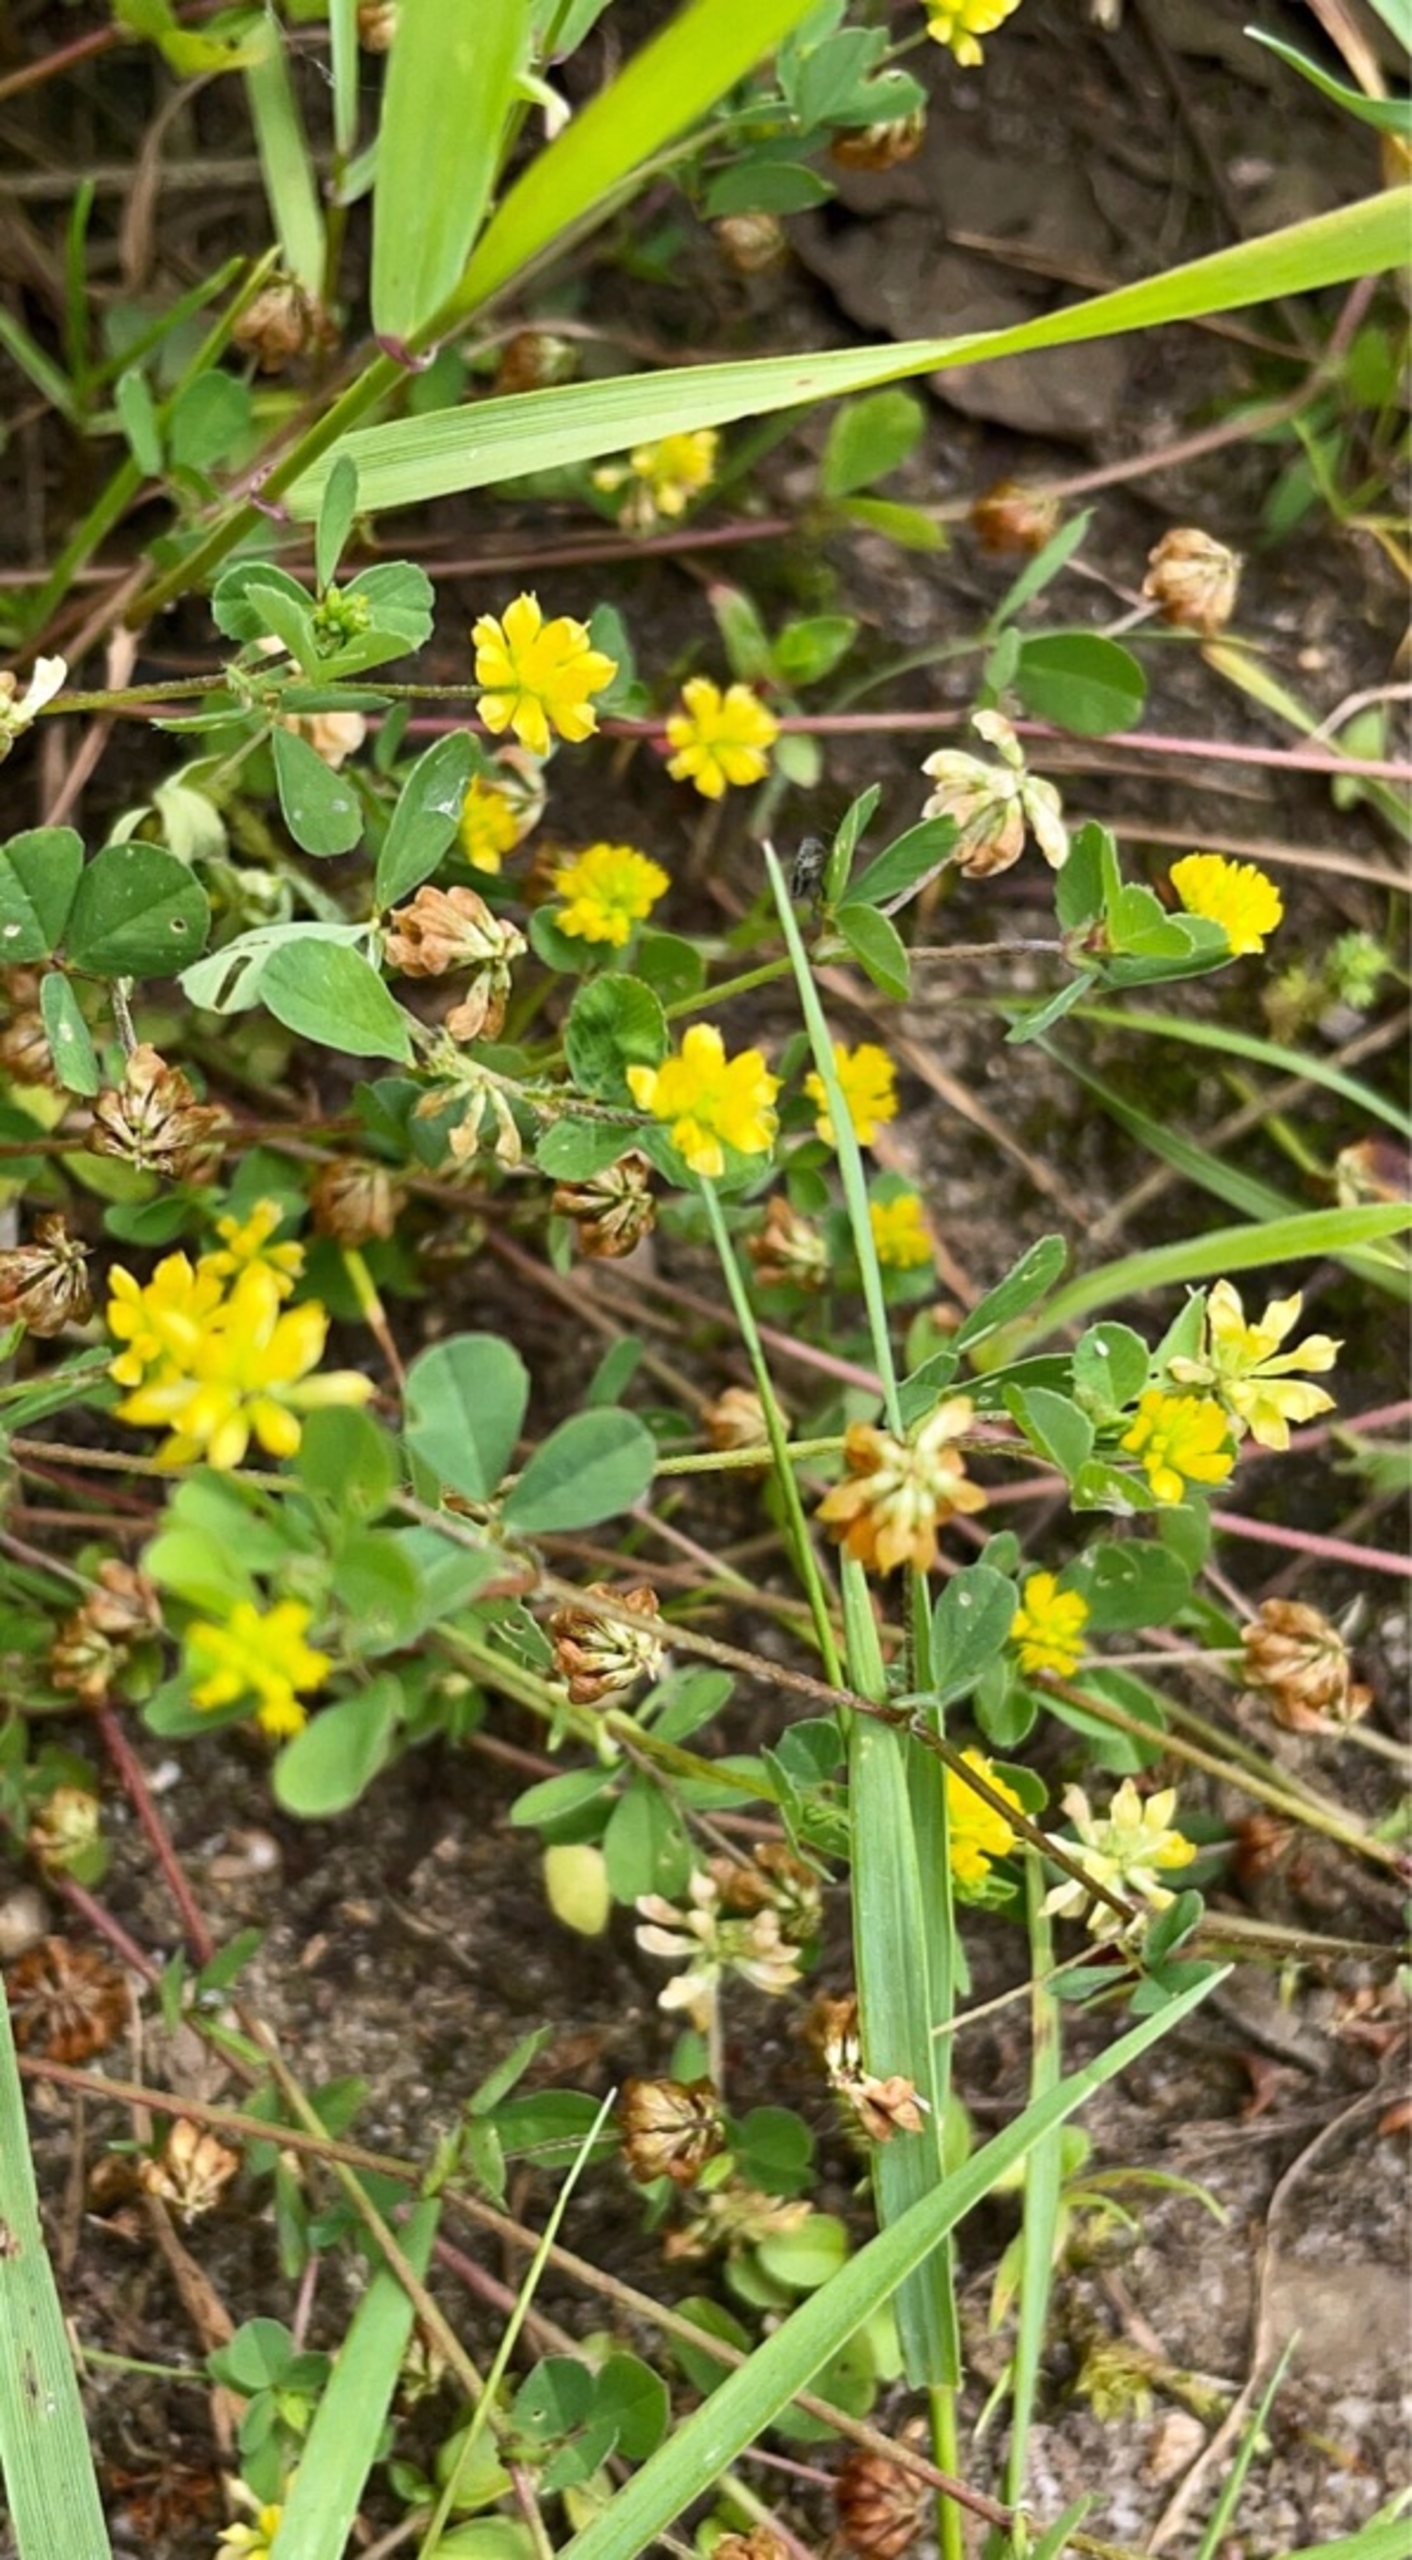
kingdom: Plantae
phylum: Tracheophyta
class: Magnoliopsida
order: Fabales
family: Fabaceae
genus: Trifolium
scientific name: Trifolium dubium
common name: Fin kløver
